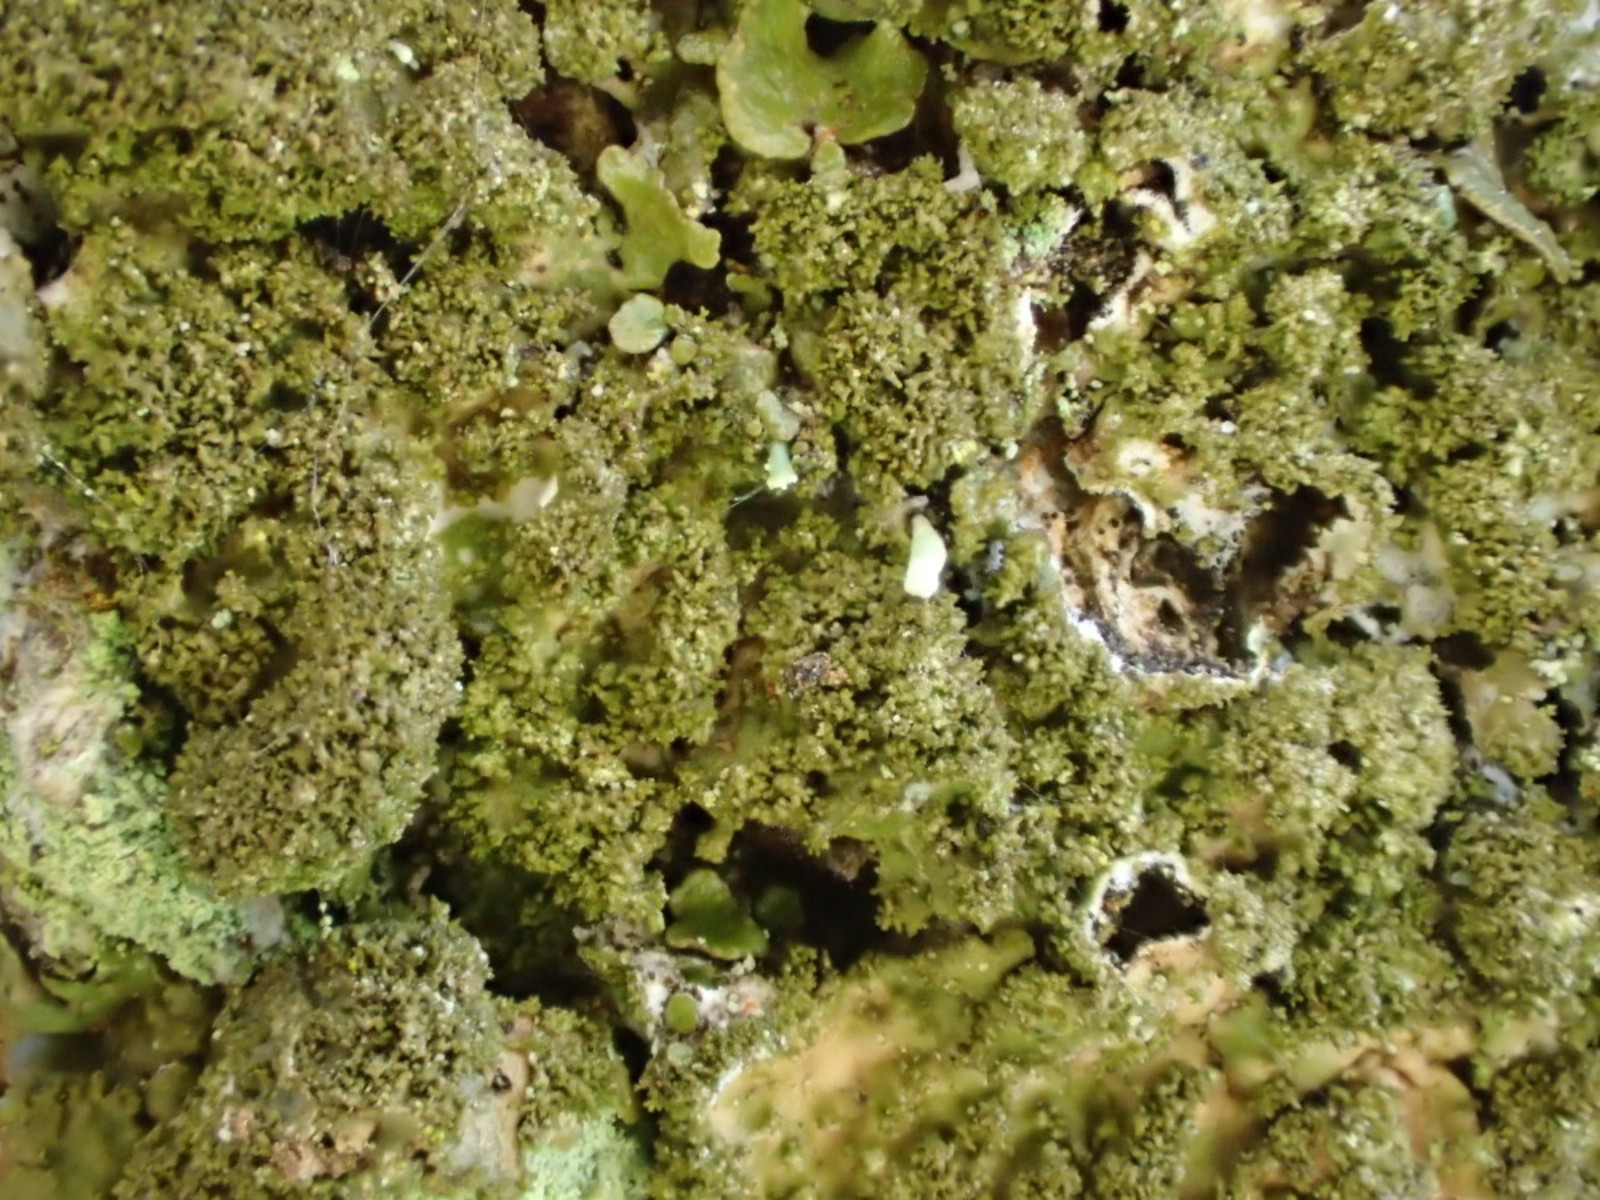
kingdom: Fungi
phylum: Ascomycota
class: Lecanoromycetes
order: Lecanorales
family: Parmeliaceae
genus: Melanelixia
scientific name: Melanelixia glabratula
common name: glinsende skållav
